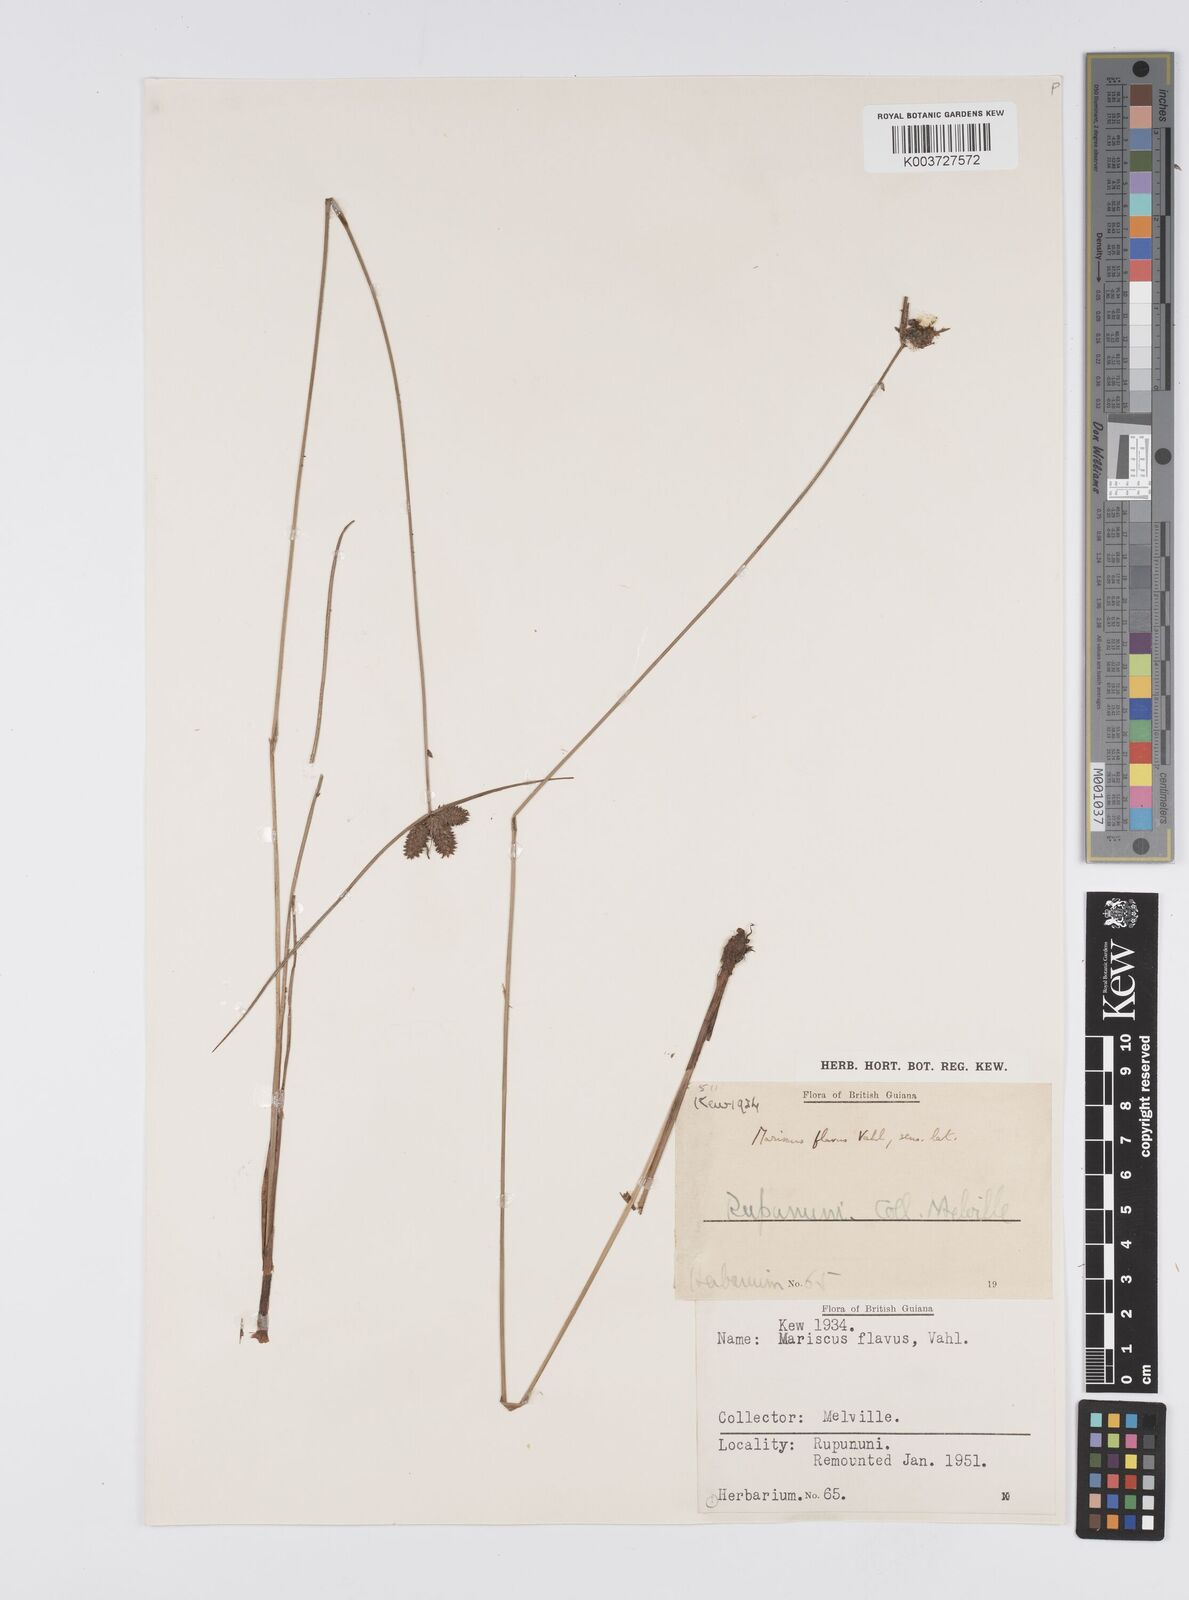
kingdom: Plantae
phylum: Tracheophyta
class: Liliopsida
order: Poales
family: Cyperaceae
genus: Cyperus
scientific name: Cyperus aggregatus
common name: Inflatedscale flatsedge
